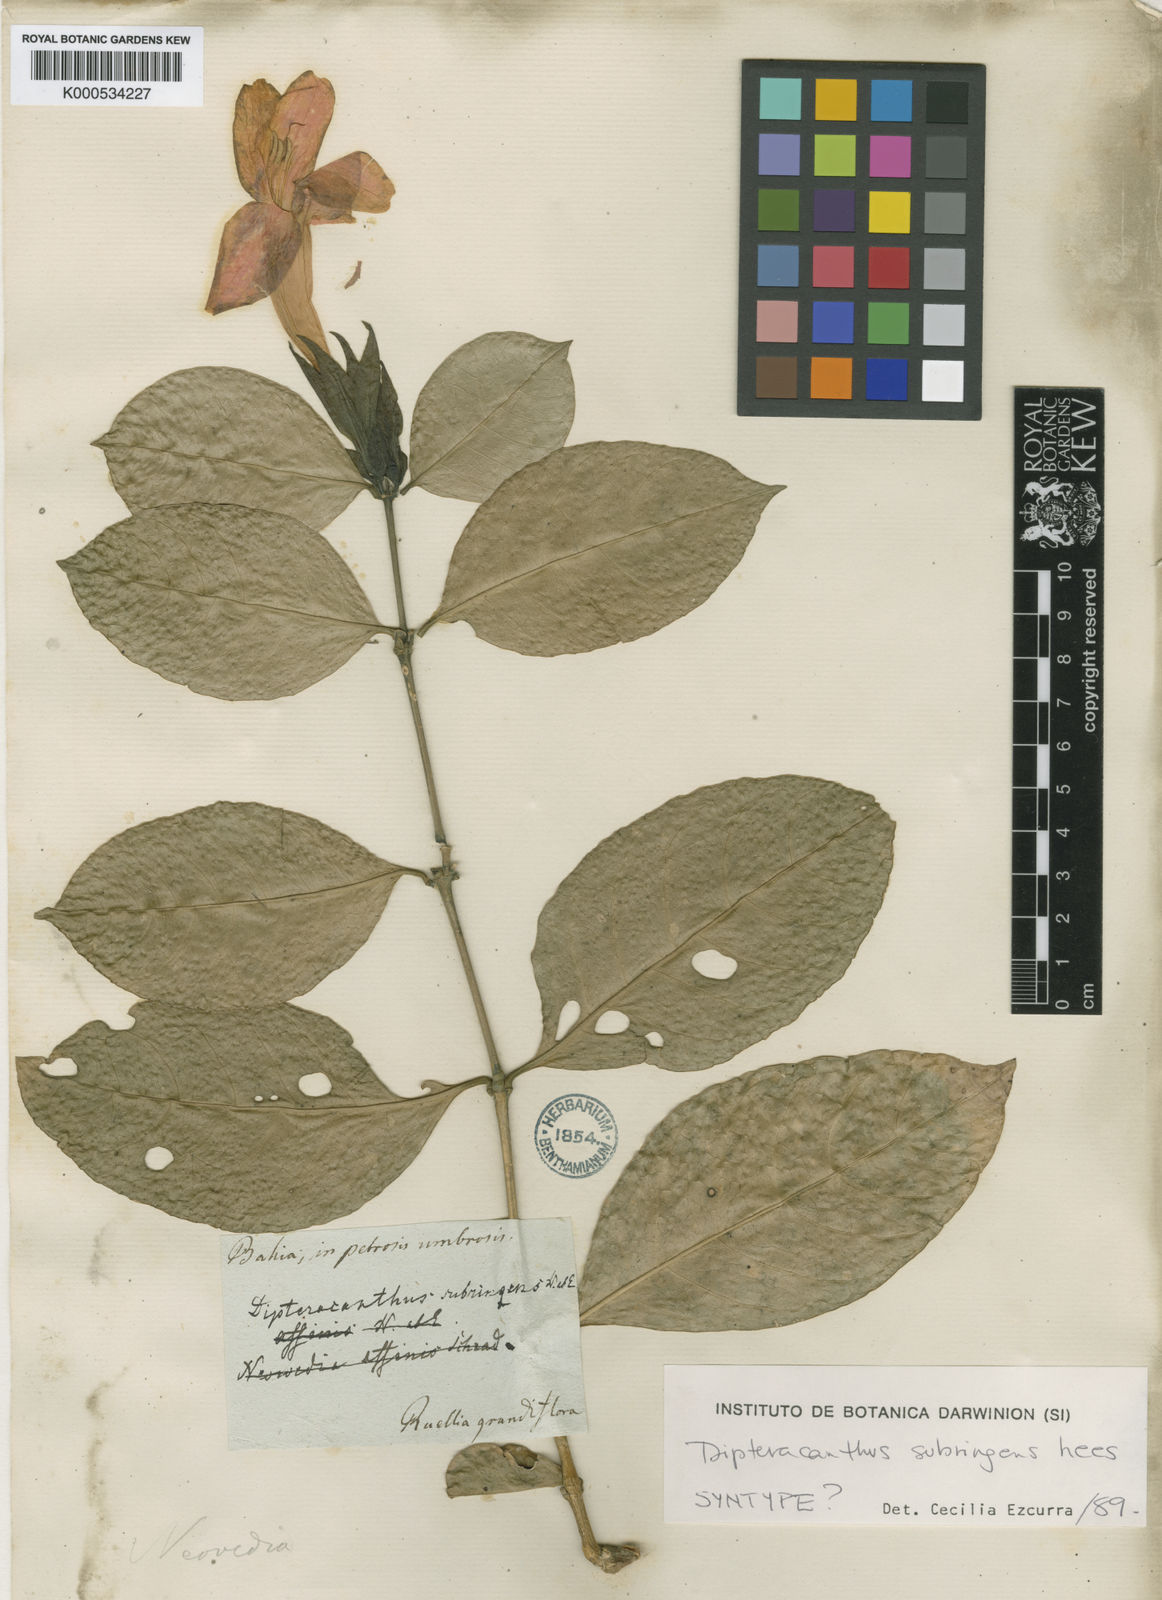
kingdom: Plantae
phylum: Tracheophyta
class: Magnoliopsida
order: Lamiales
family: Acanthaceae
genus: Ruellia
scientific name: Ruellia subringens
